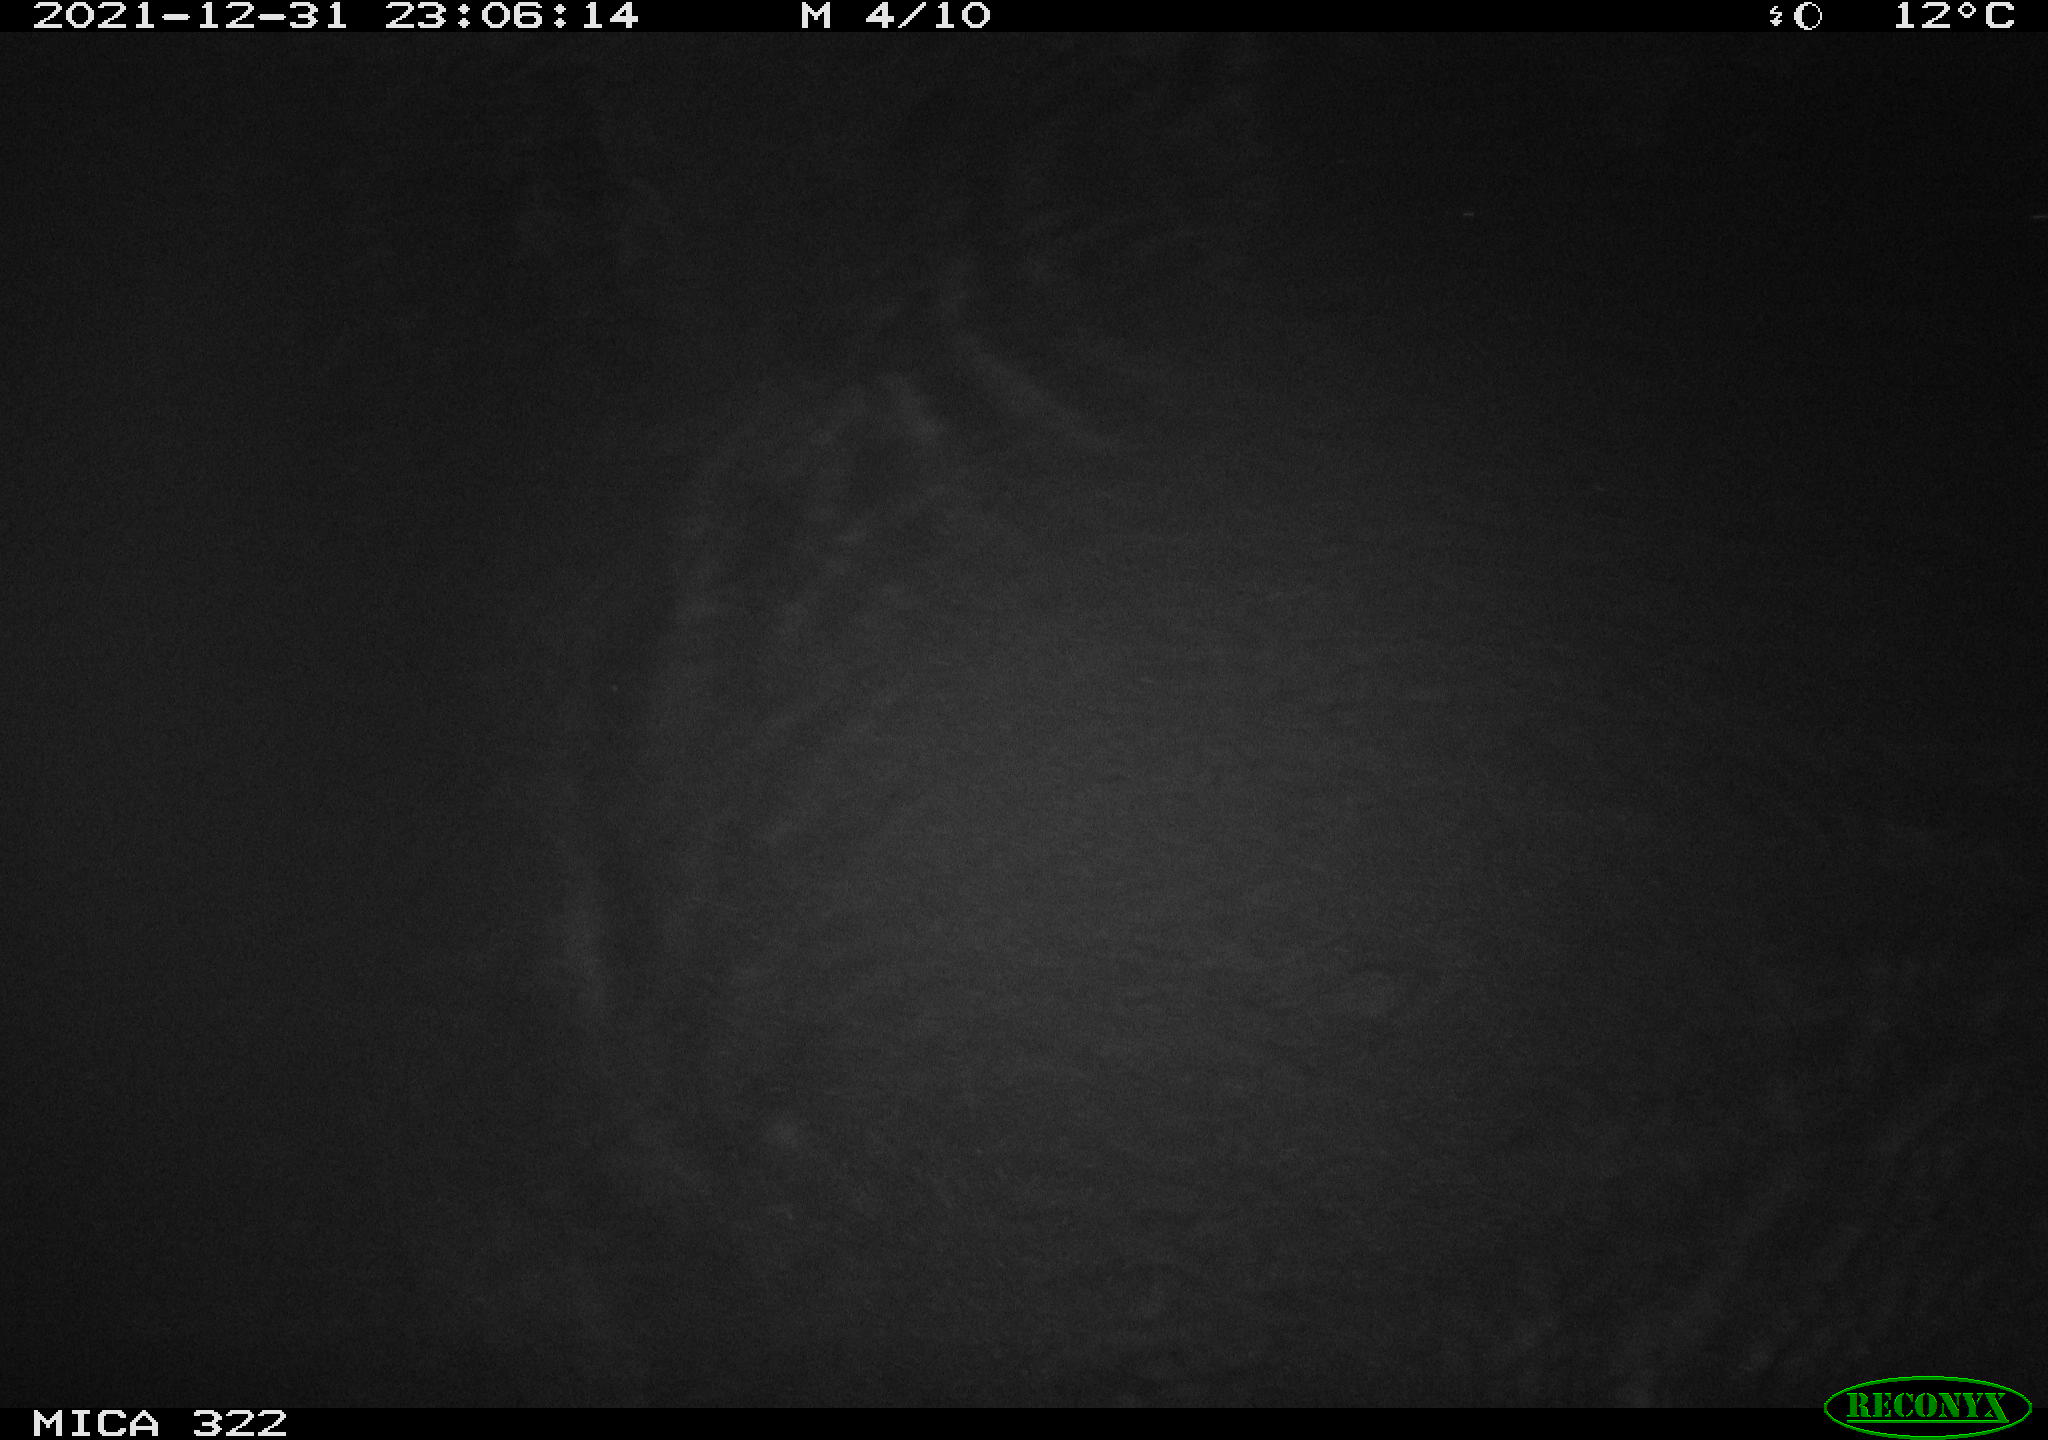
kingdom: Animalia
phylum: Chordata
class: Mammalia
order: Rodentia
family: Muridae
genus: Rattus
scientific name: Rattus norvegicus
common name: Brown rat
